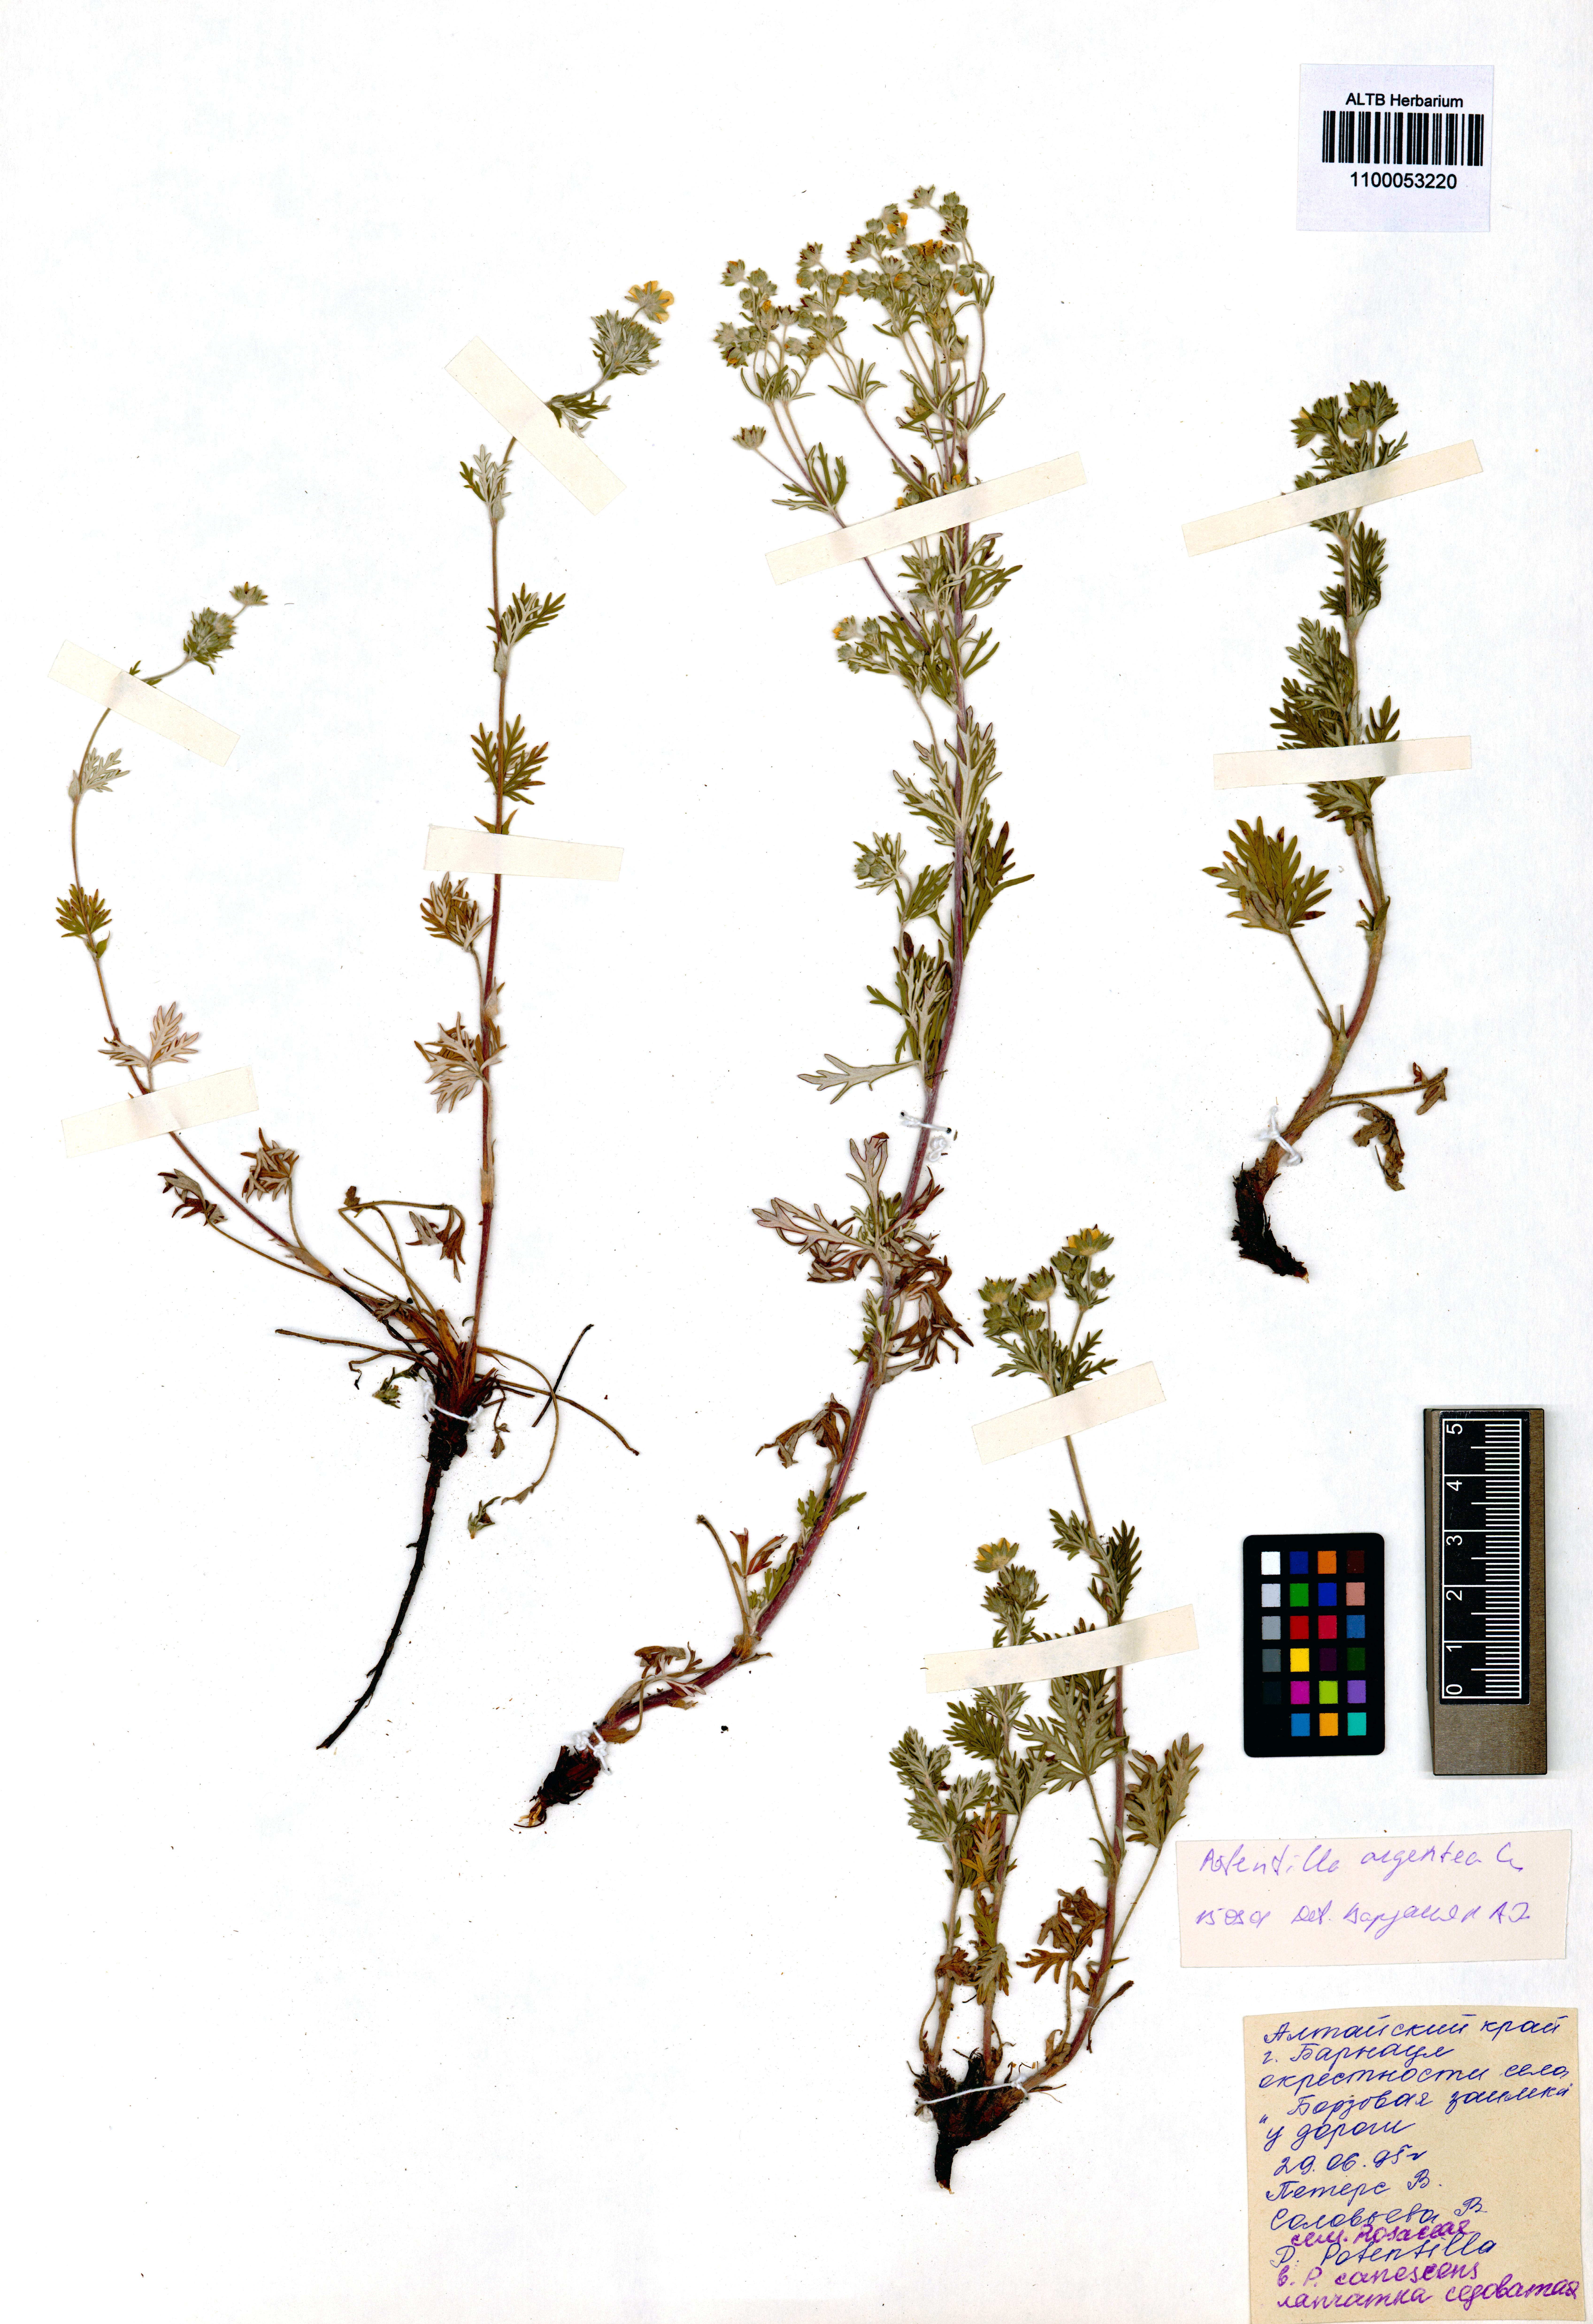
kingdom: Plantae
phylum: Tracheophyta
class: Magnoliopsida
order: Rosales
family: Rosaceae
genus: Potentilla
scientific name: Potentilla argentea
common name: Hoary cinquefoil
